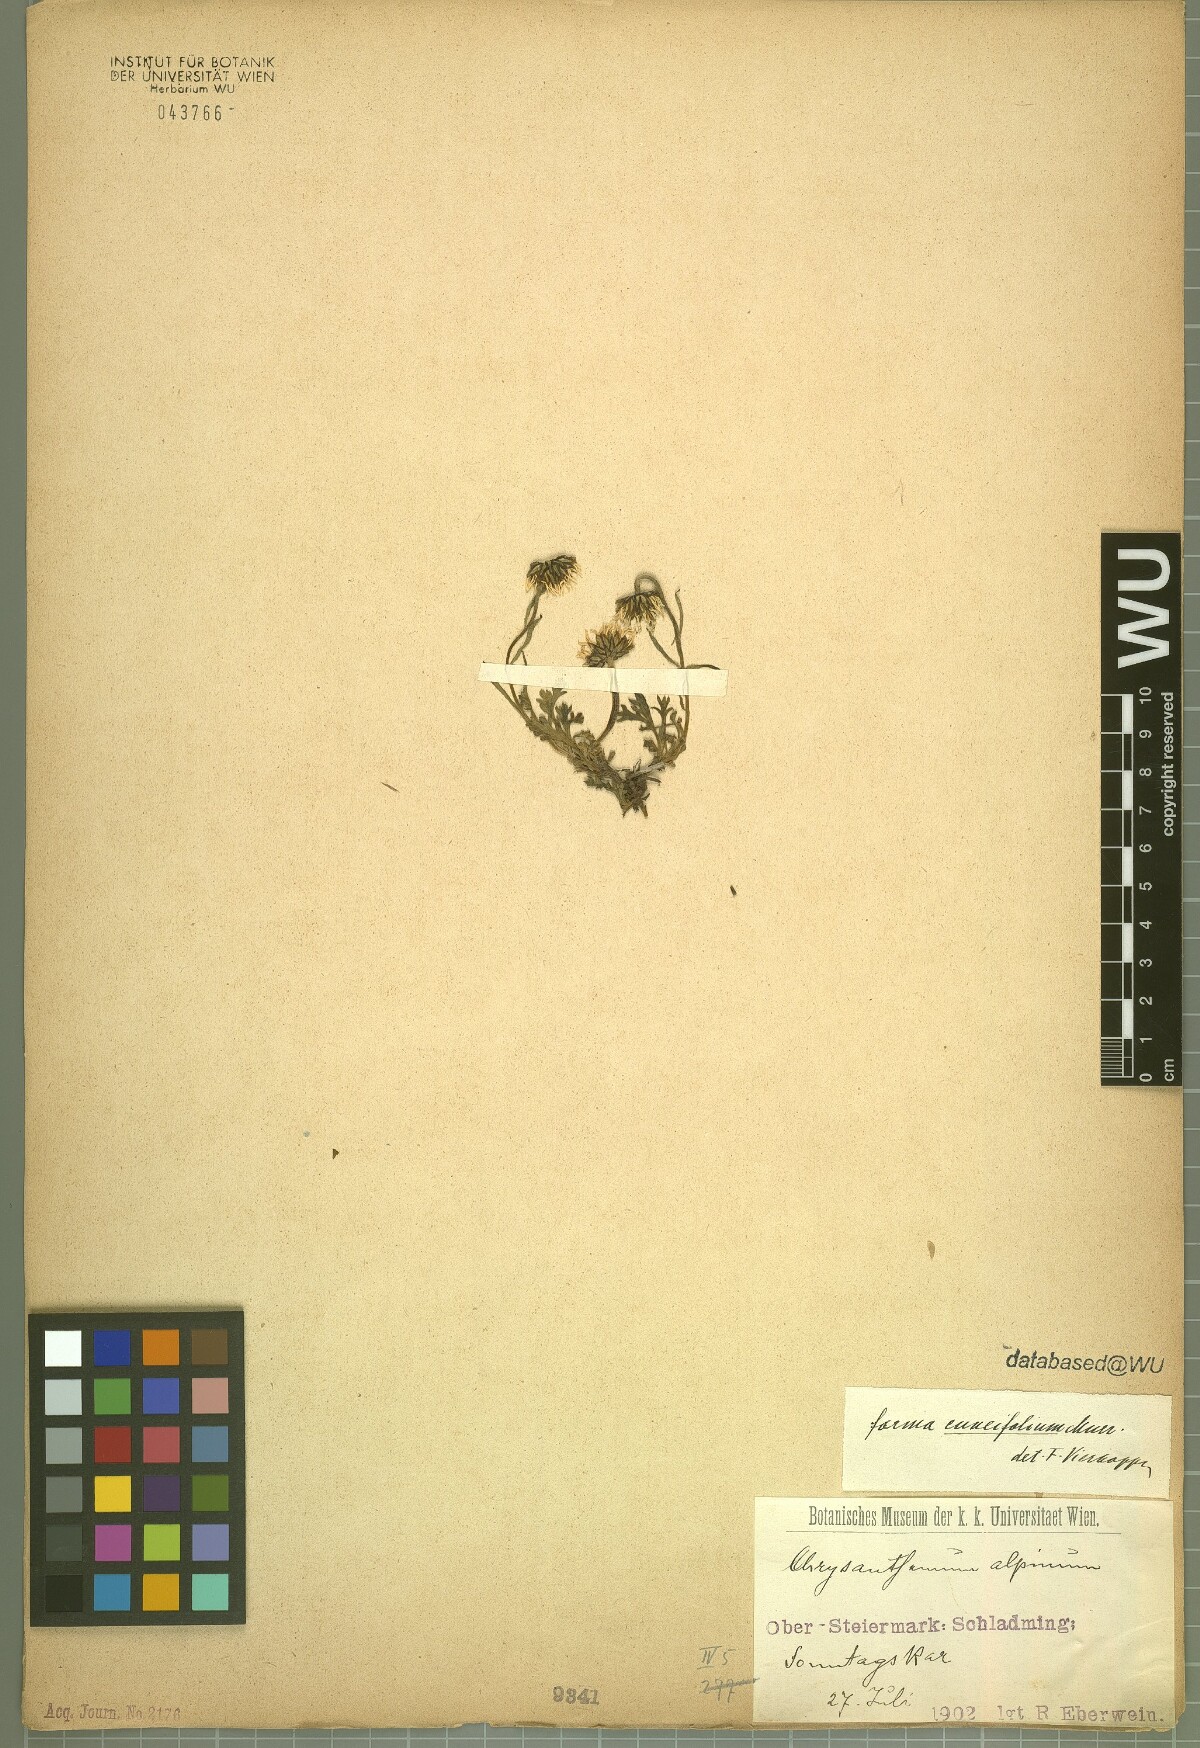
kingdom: Plantae
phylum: Tracheophyta
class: Magnoliopsida
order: Asterales
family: Asteraceae
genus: Leucanthemopsis
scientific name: Leucanthemopsis alpina
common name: Alpine moon daisy
